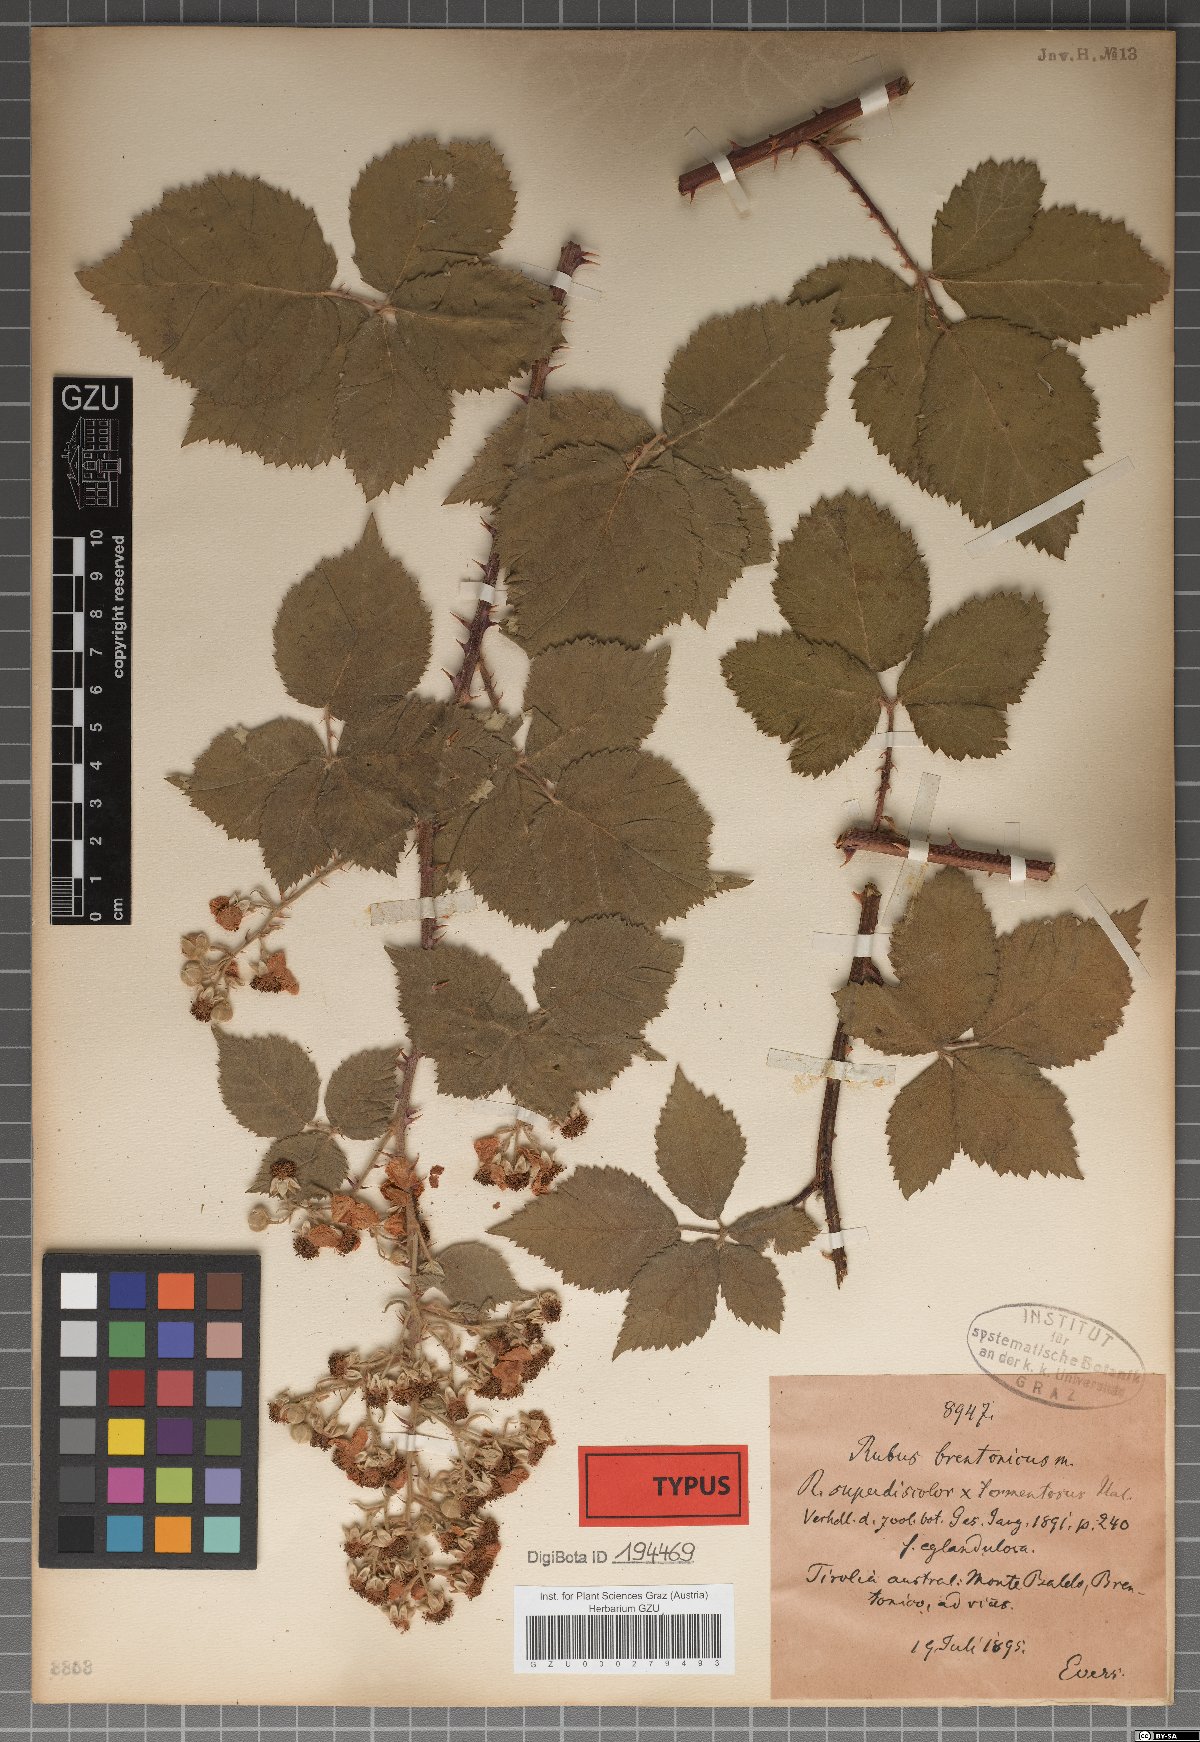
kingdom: Plantae
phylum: Tracheophyta
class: Magnoliopsida
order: Rosales
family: Rosaceae
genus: Rubus
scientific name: Rubus brentonicus
